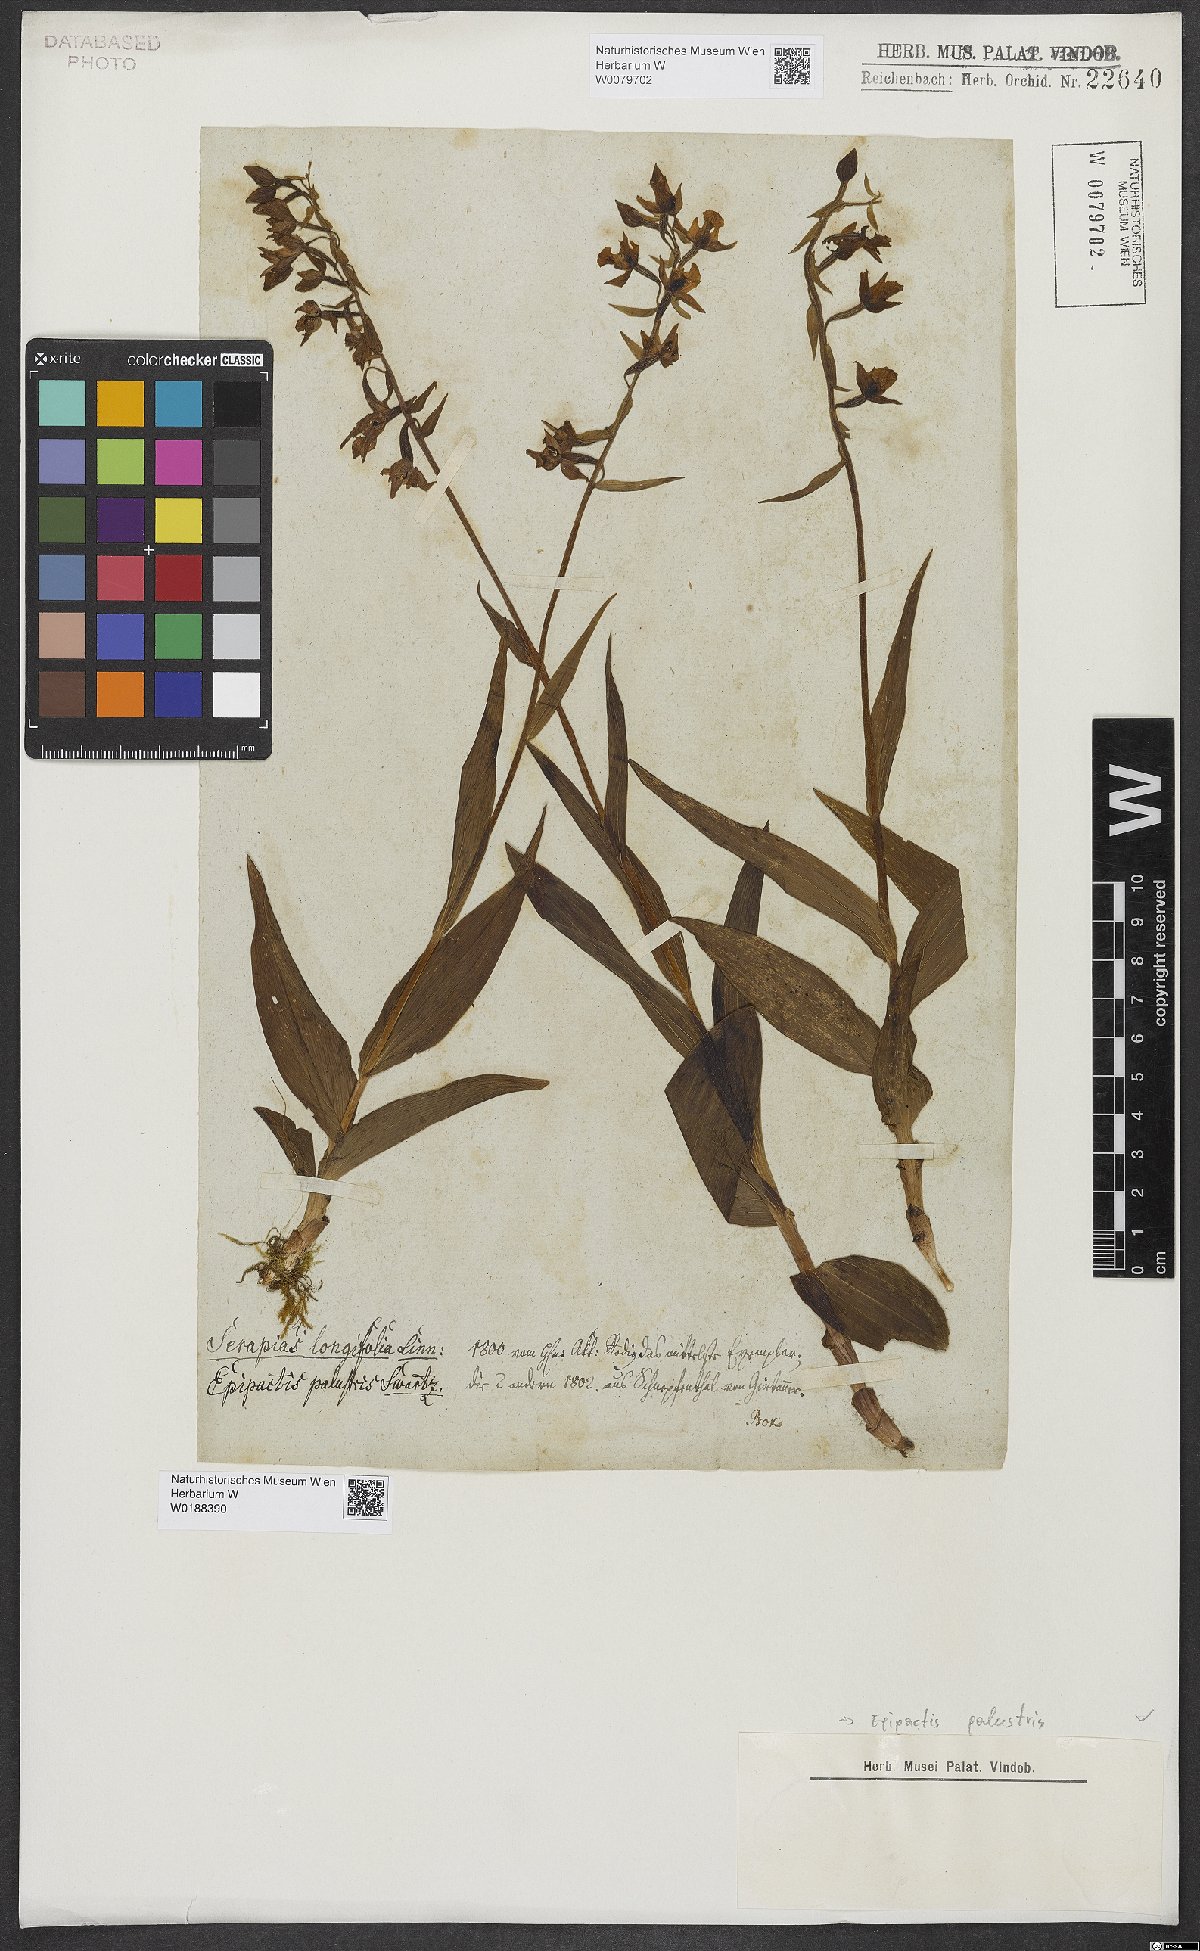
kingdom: Plantae
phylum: Tracheophyta
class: Liliopsida
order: Asparagales
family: Orchidaceae
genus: Epipactis
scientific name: Epipactis palustris
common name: Marsh helleborine
